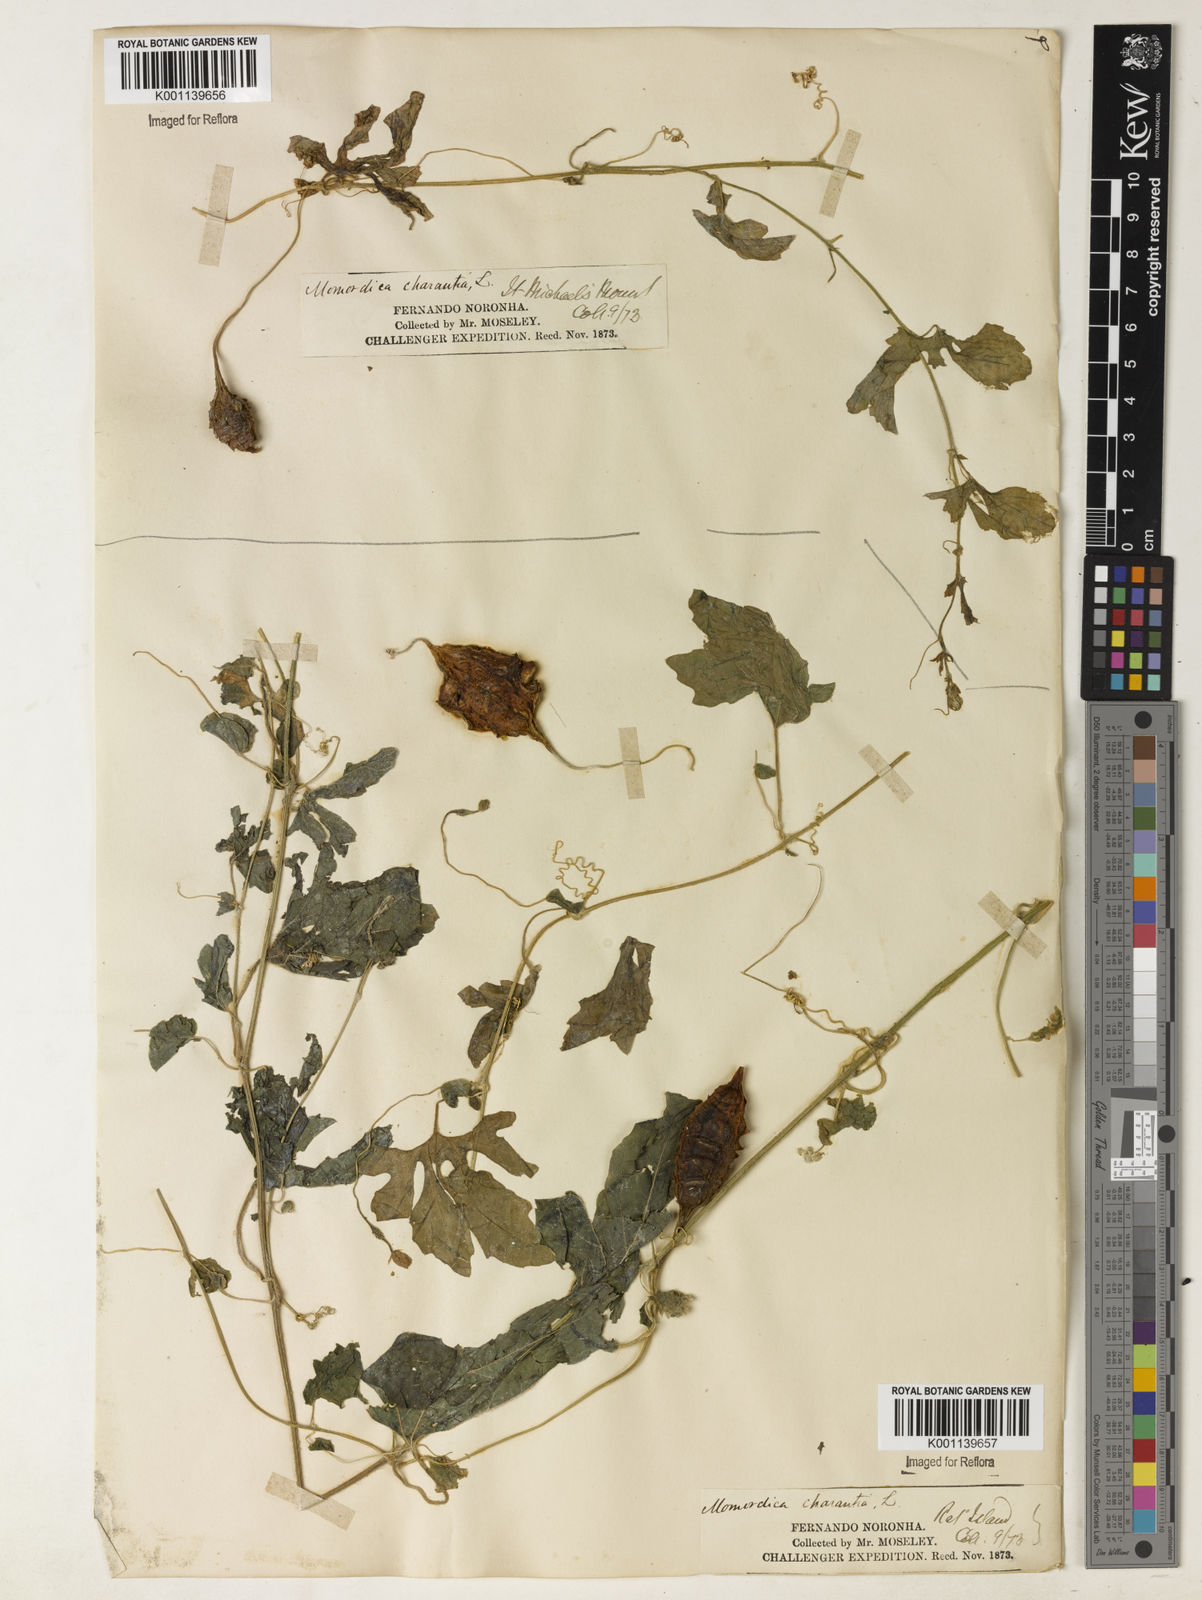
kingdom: Plantae
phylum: Tracheophyta
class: Magnoliopsida
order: Cucurbitales
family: Cucurbitaceae
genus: Momordica
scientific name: Momordica charantia
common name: Balsampear
